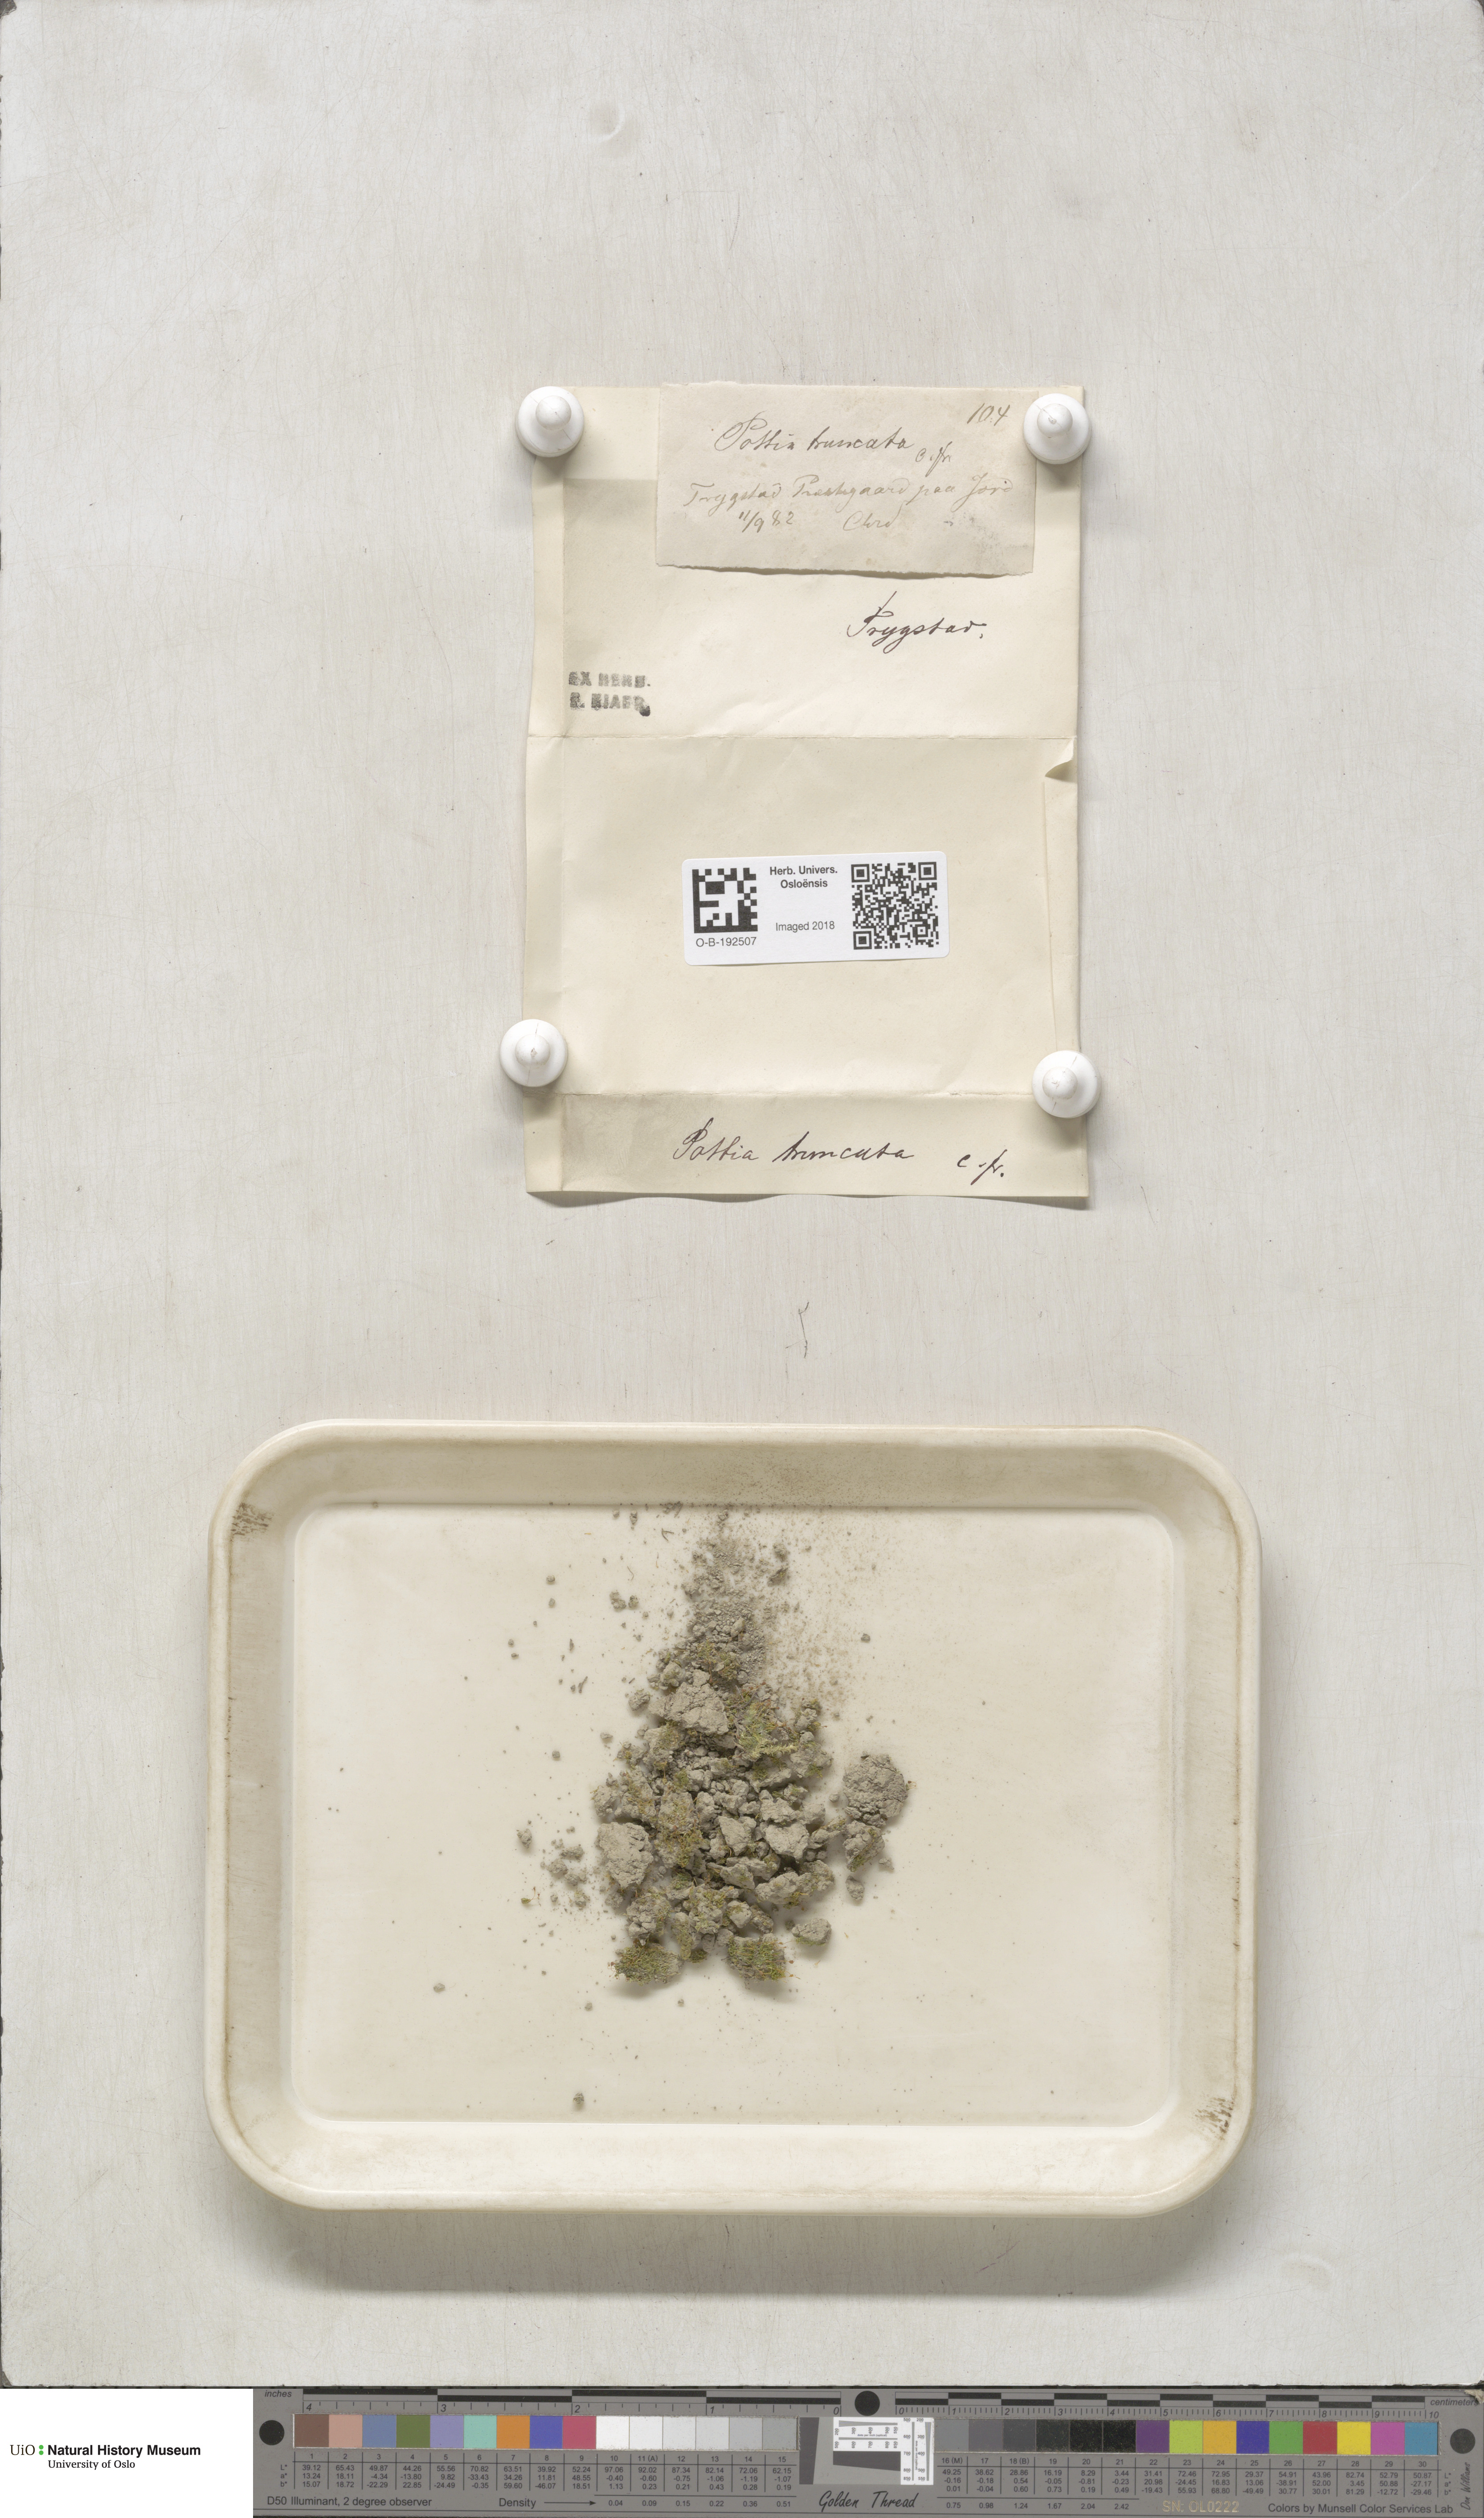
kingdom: Plantae
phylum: Bryophyta
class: Bryopsida
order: Pottiales
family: Pottiaceae
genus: Tortula
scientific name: Tortula truncata
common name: Truncated screw moss
